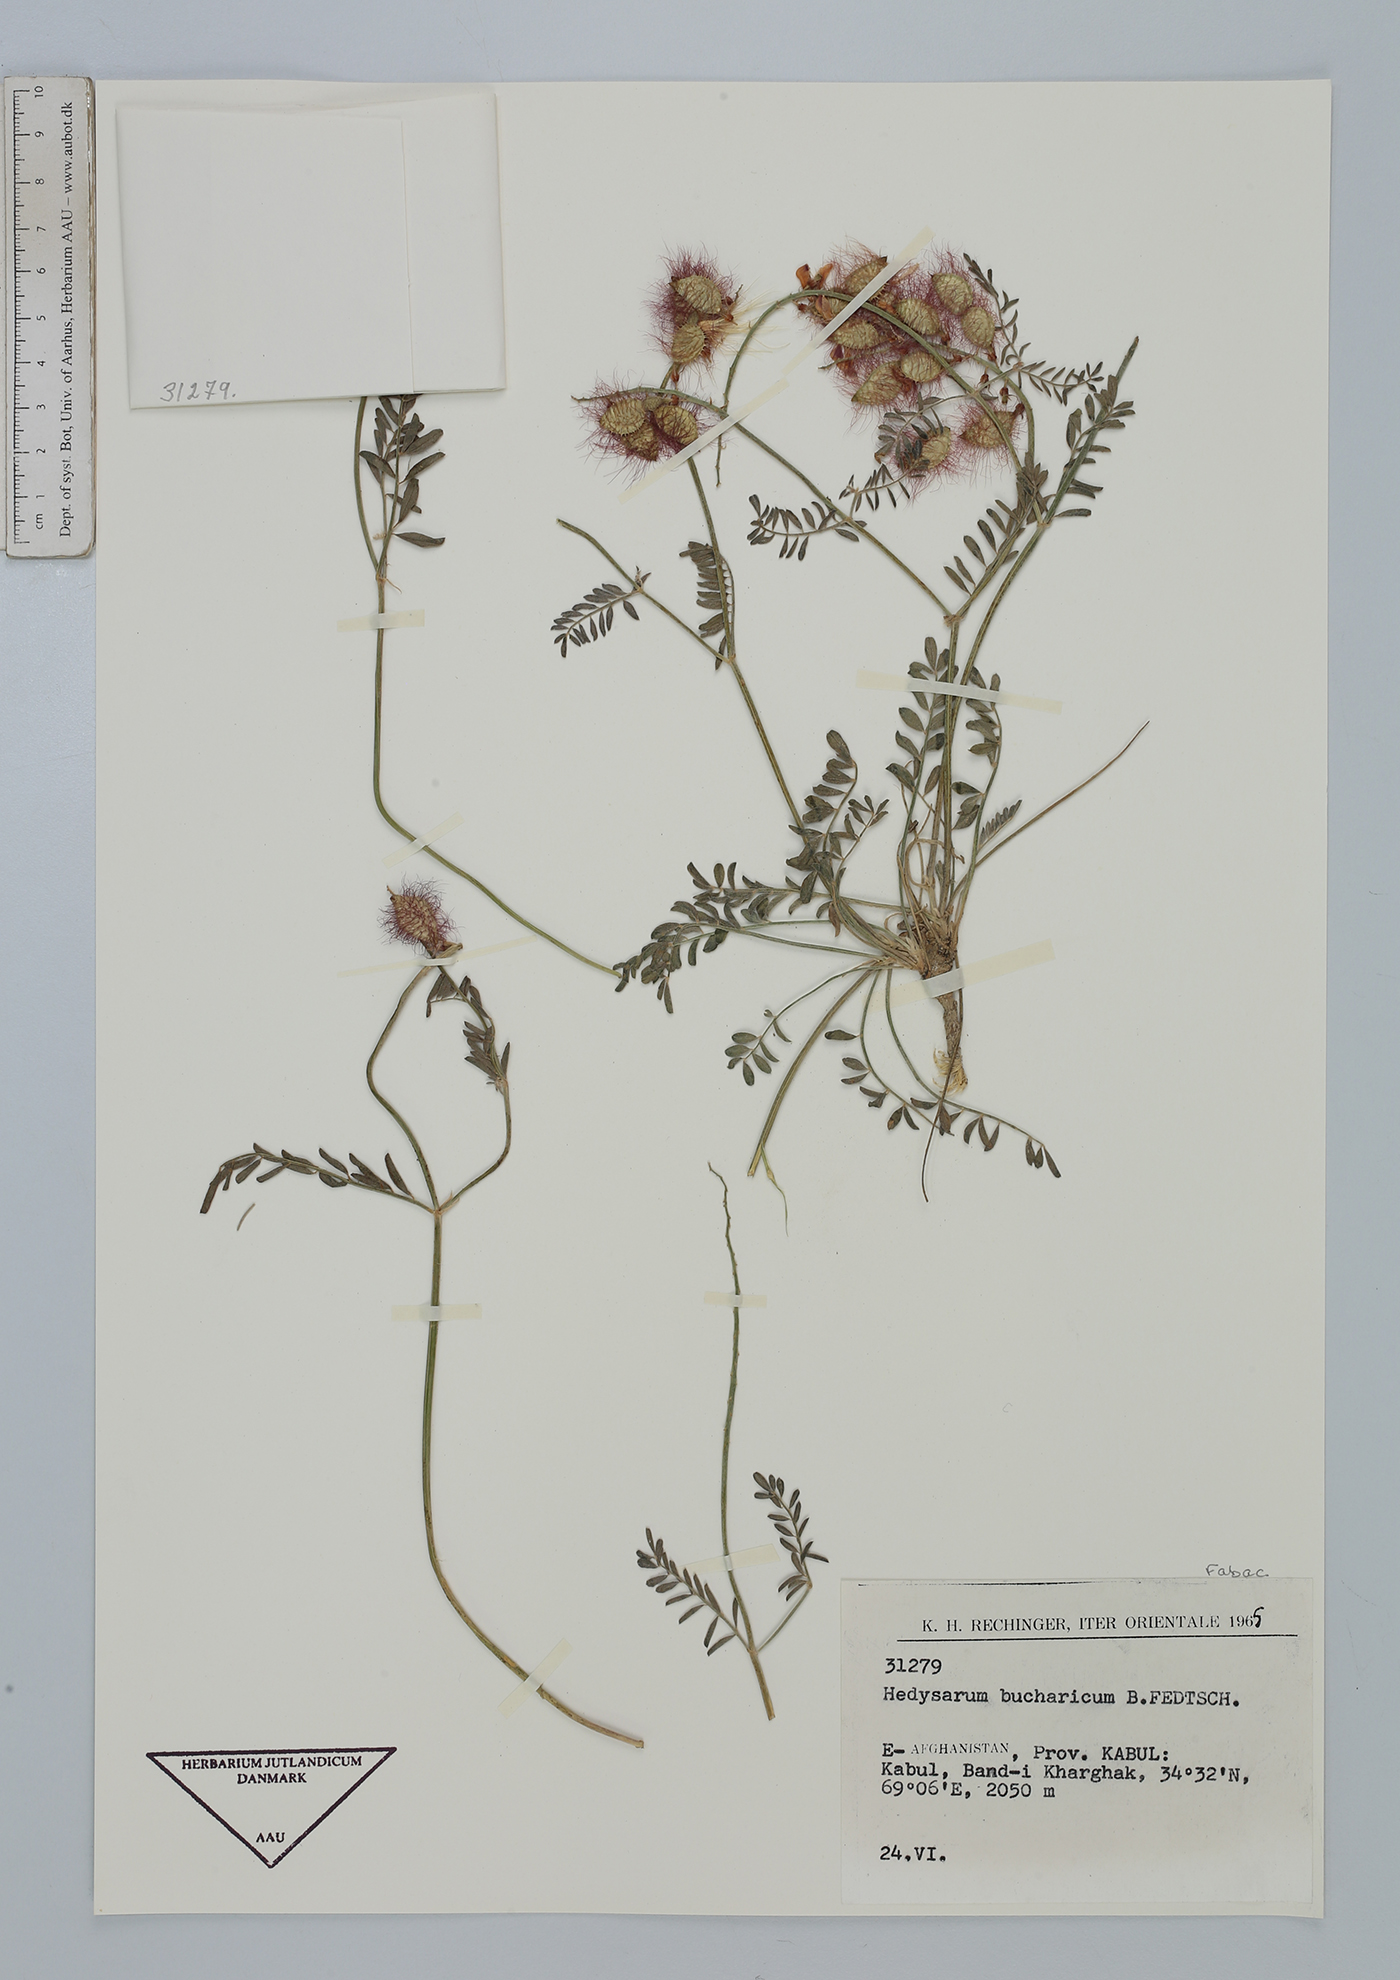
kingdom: Plantae
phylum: Tracheophyta
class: Magnoliopsida
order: Fabales
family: Fabaceae
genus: Hedysarum
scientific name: Hedysarum bucharicum
